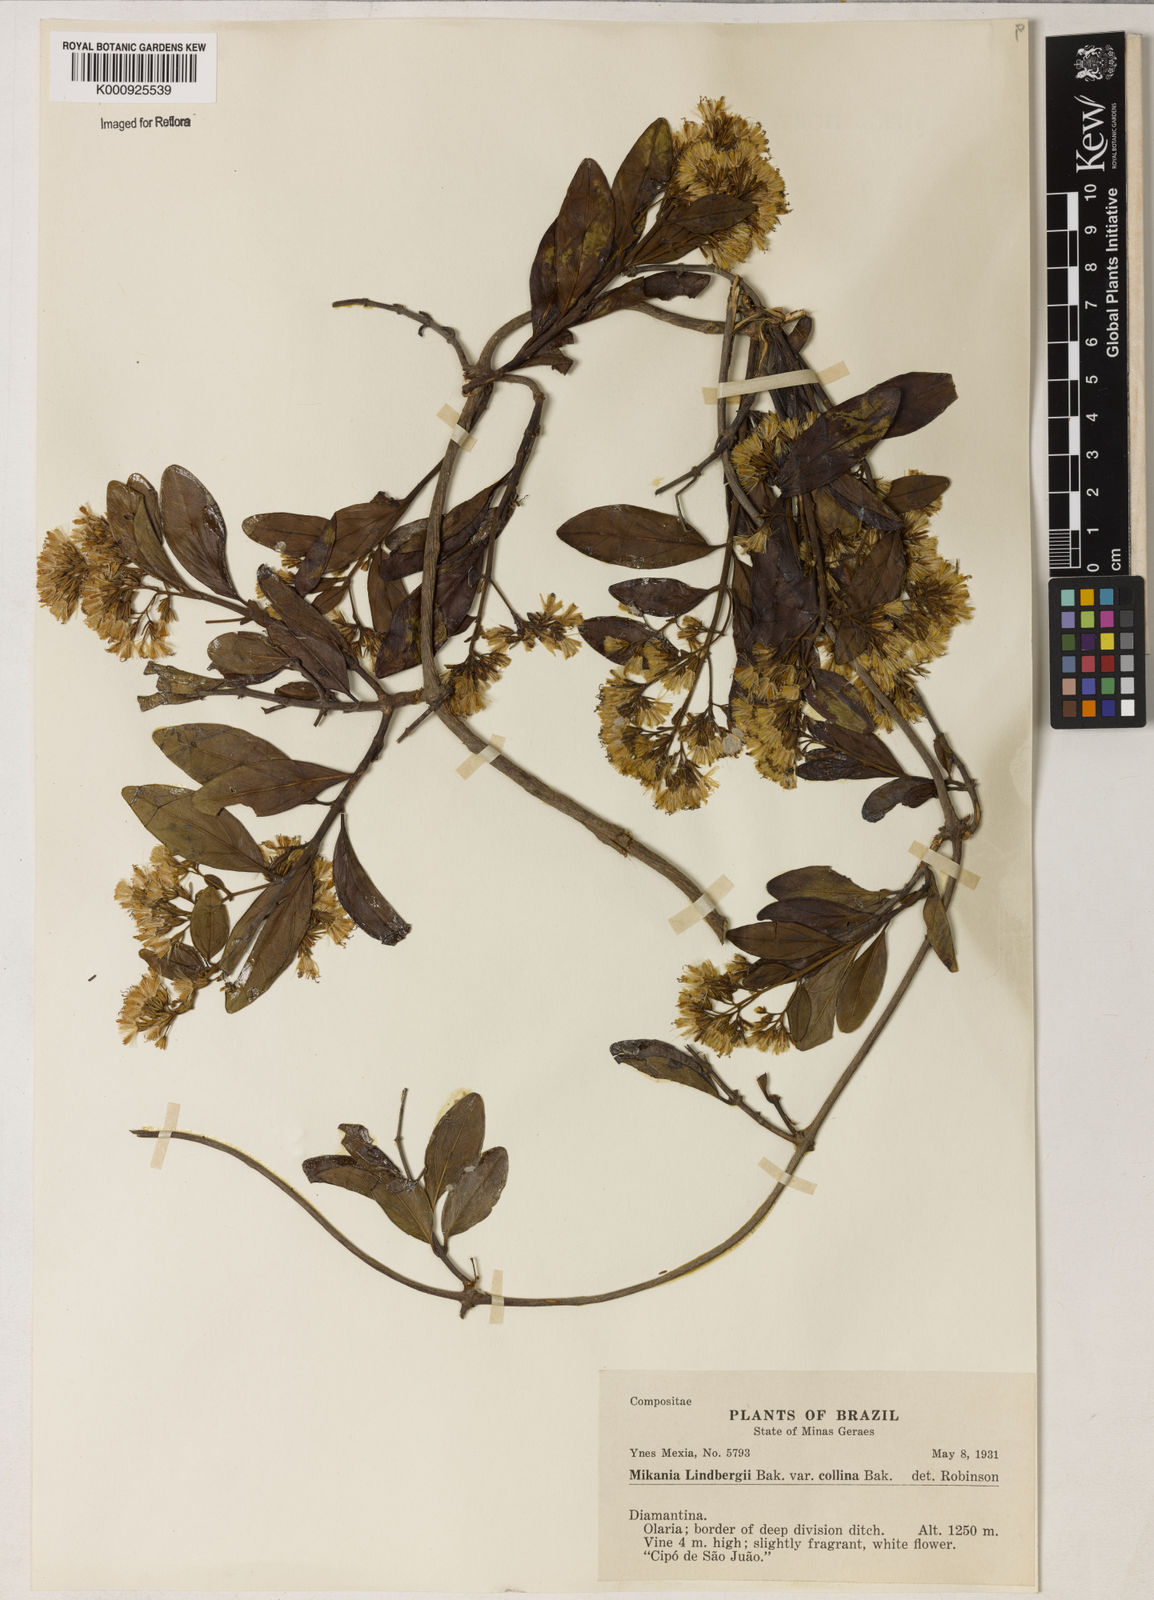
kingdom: Plantae
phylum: Tracheophyta
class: Magnoliopsida
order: Asterales
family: Asteraceae
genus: Mikania
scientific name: Mikania lindbergii
